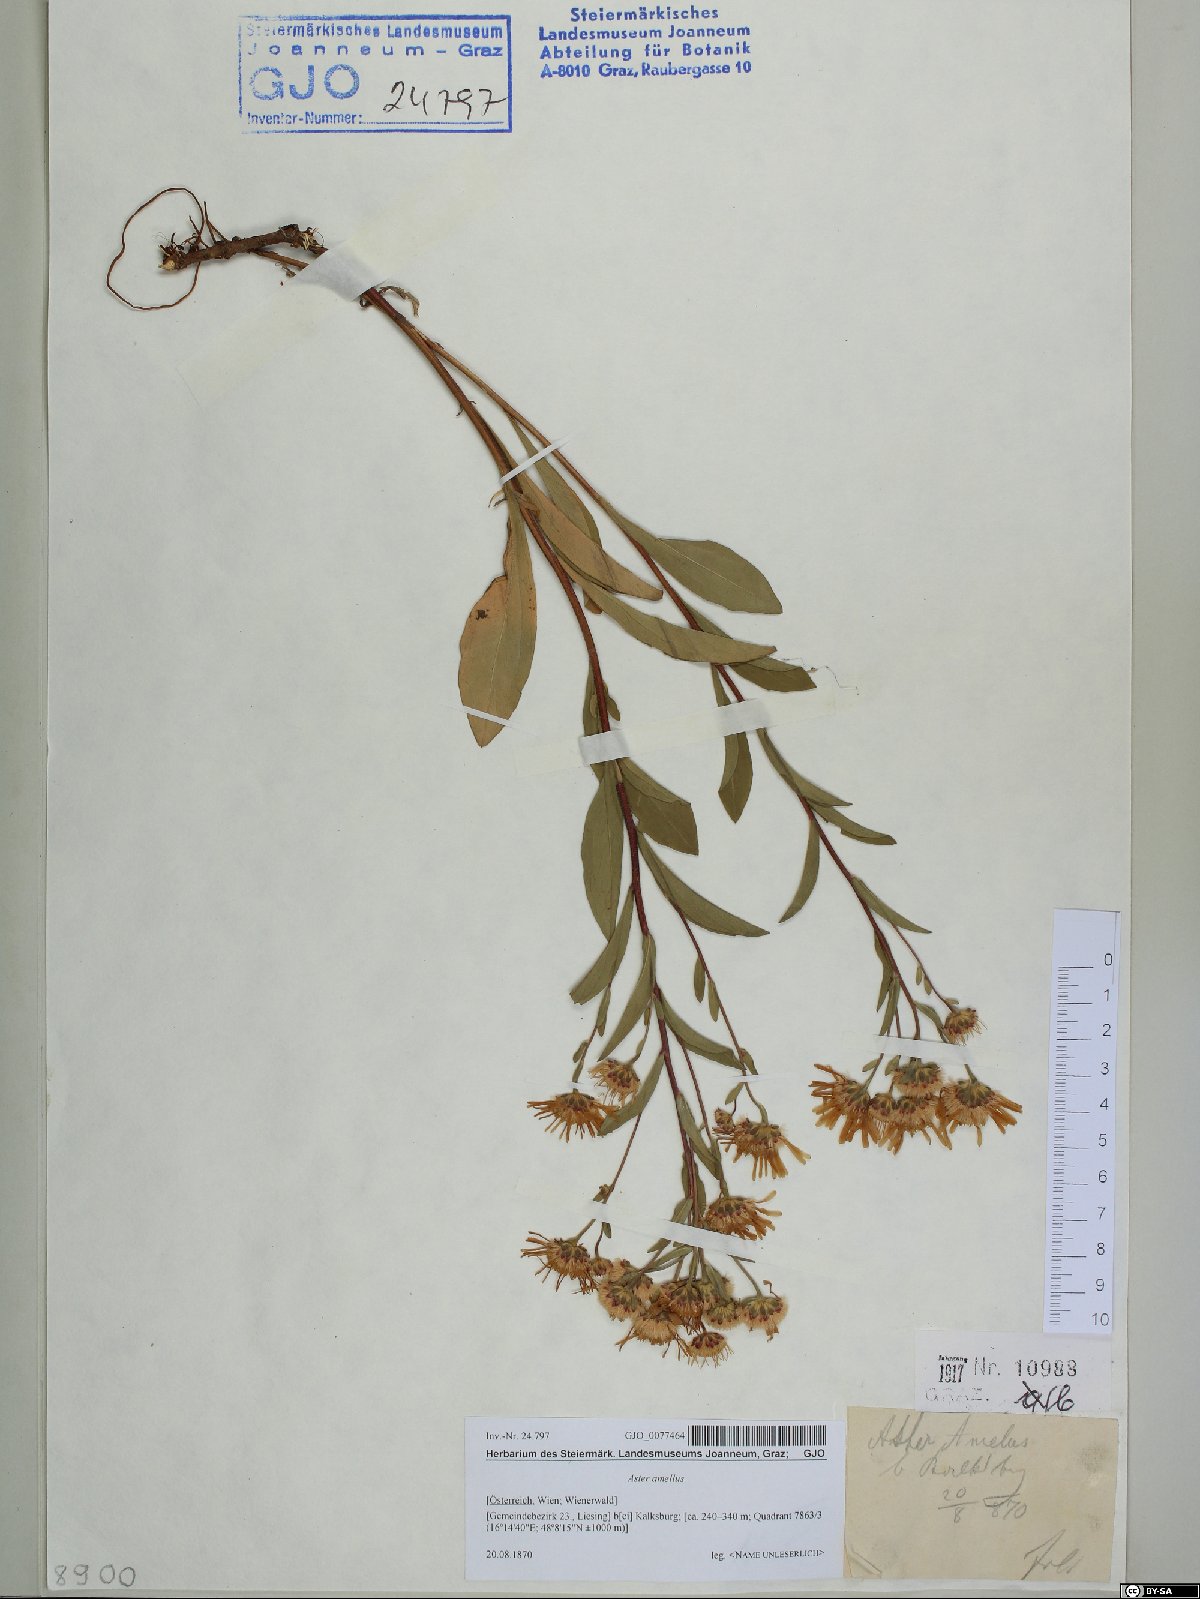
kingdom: Plantae
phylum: Tracheophyta
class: Magnoliopsida
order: Asterales
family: Asteraceae
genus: Aster
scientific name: Aster amellus
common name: European michaelmas daisy
